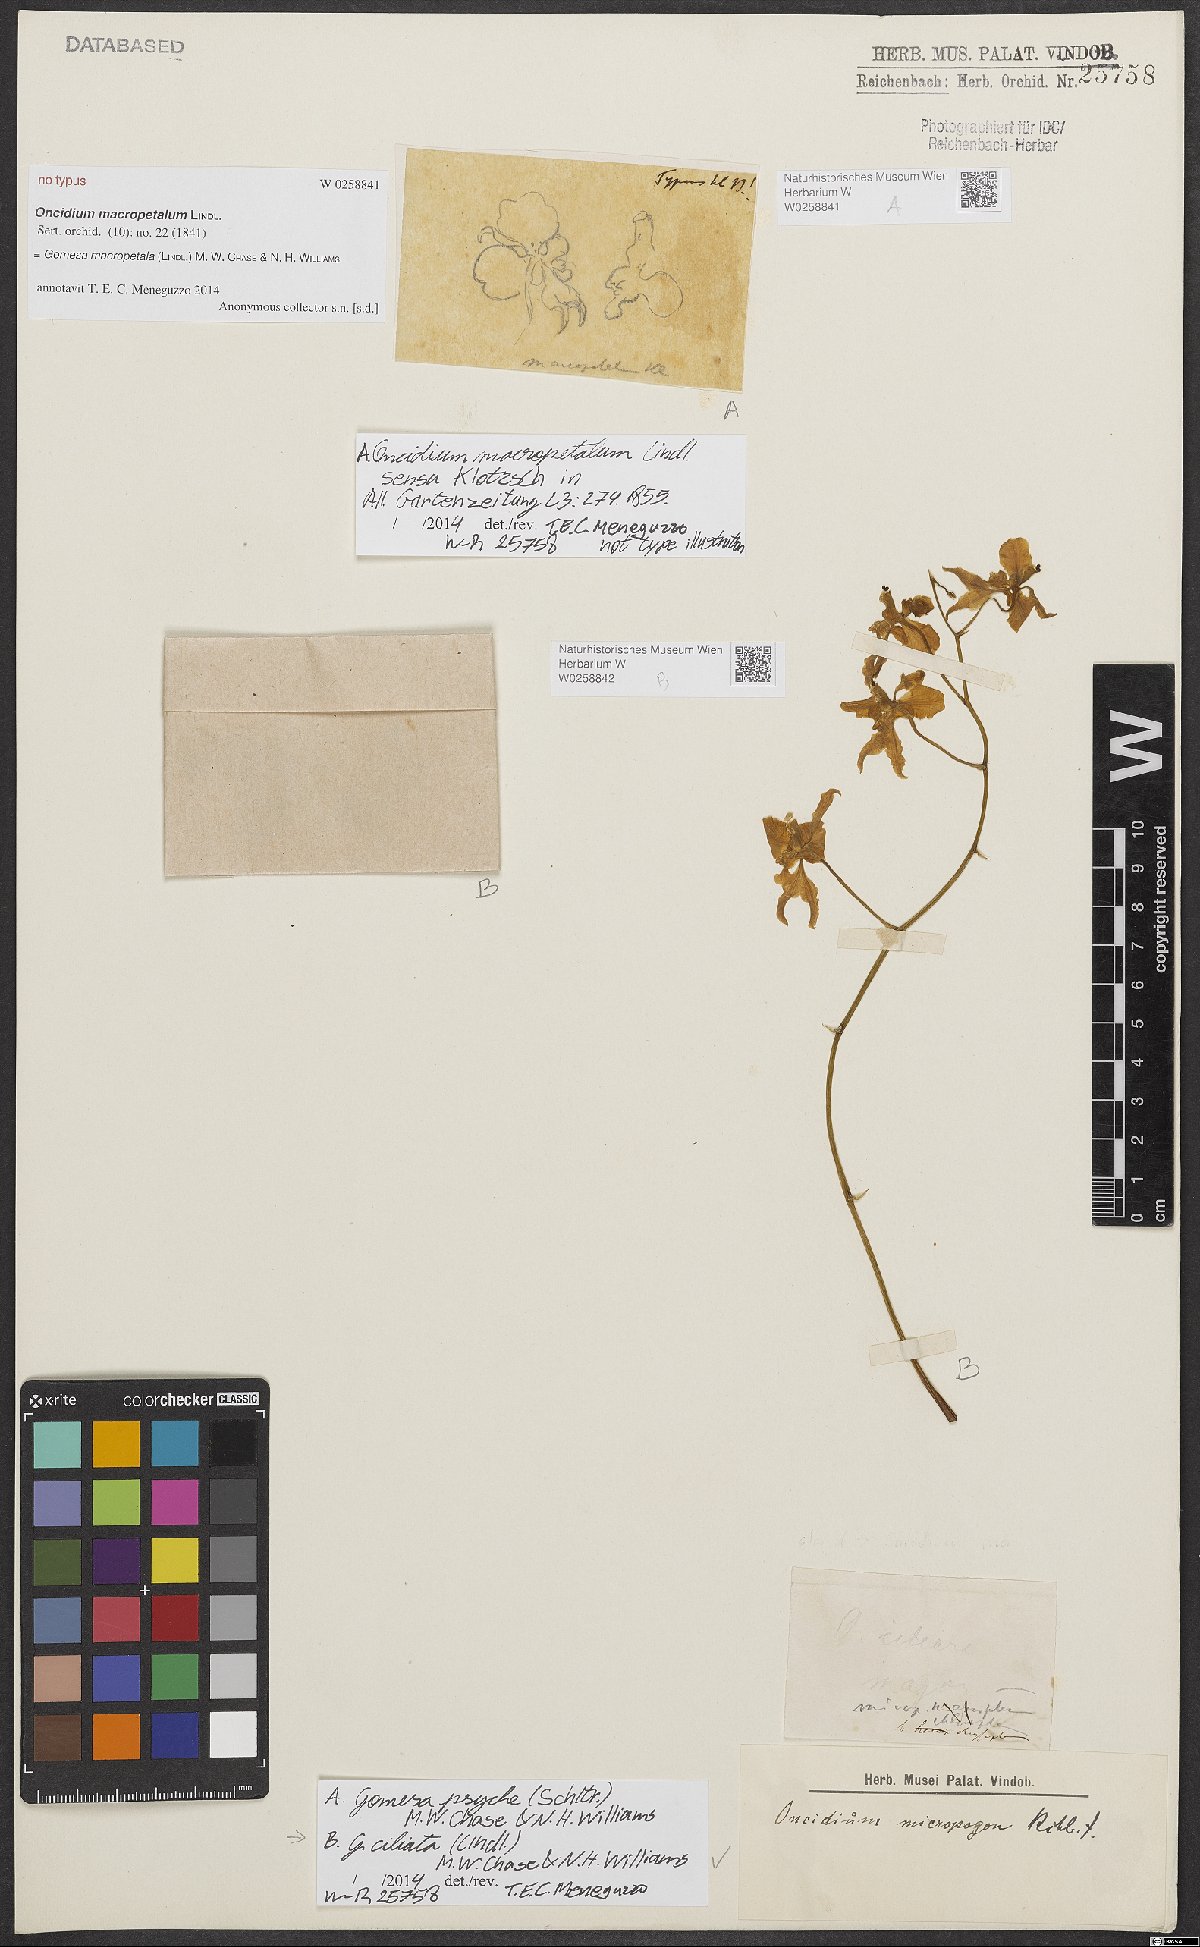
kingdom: Plantae
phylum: Tracheophyta
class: Liliopsida
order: Asparagales
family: Orchidaceae
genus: Gomesa
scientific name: Gomesa macropetala
